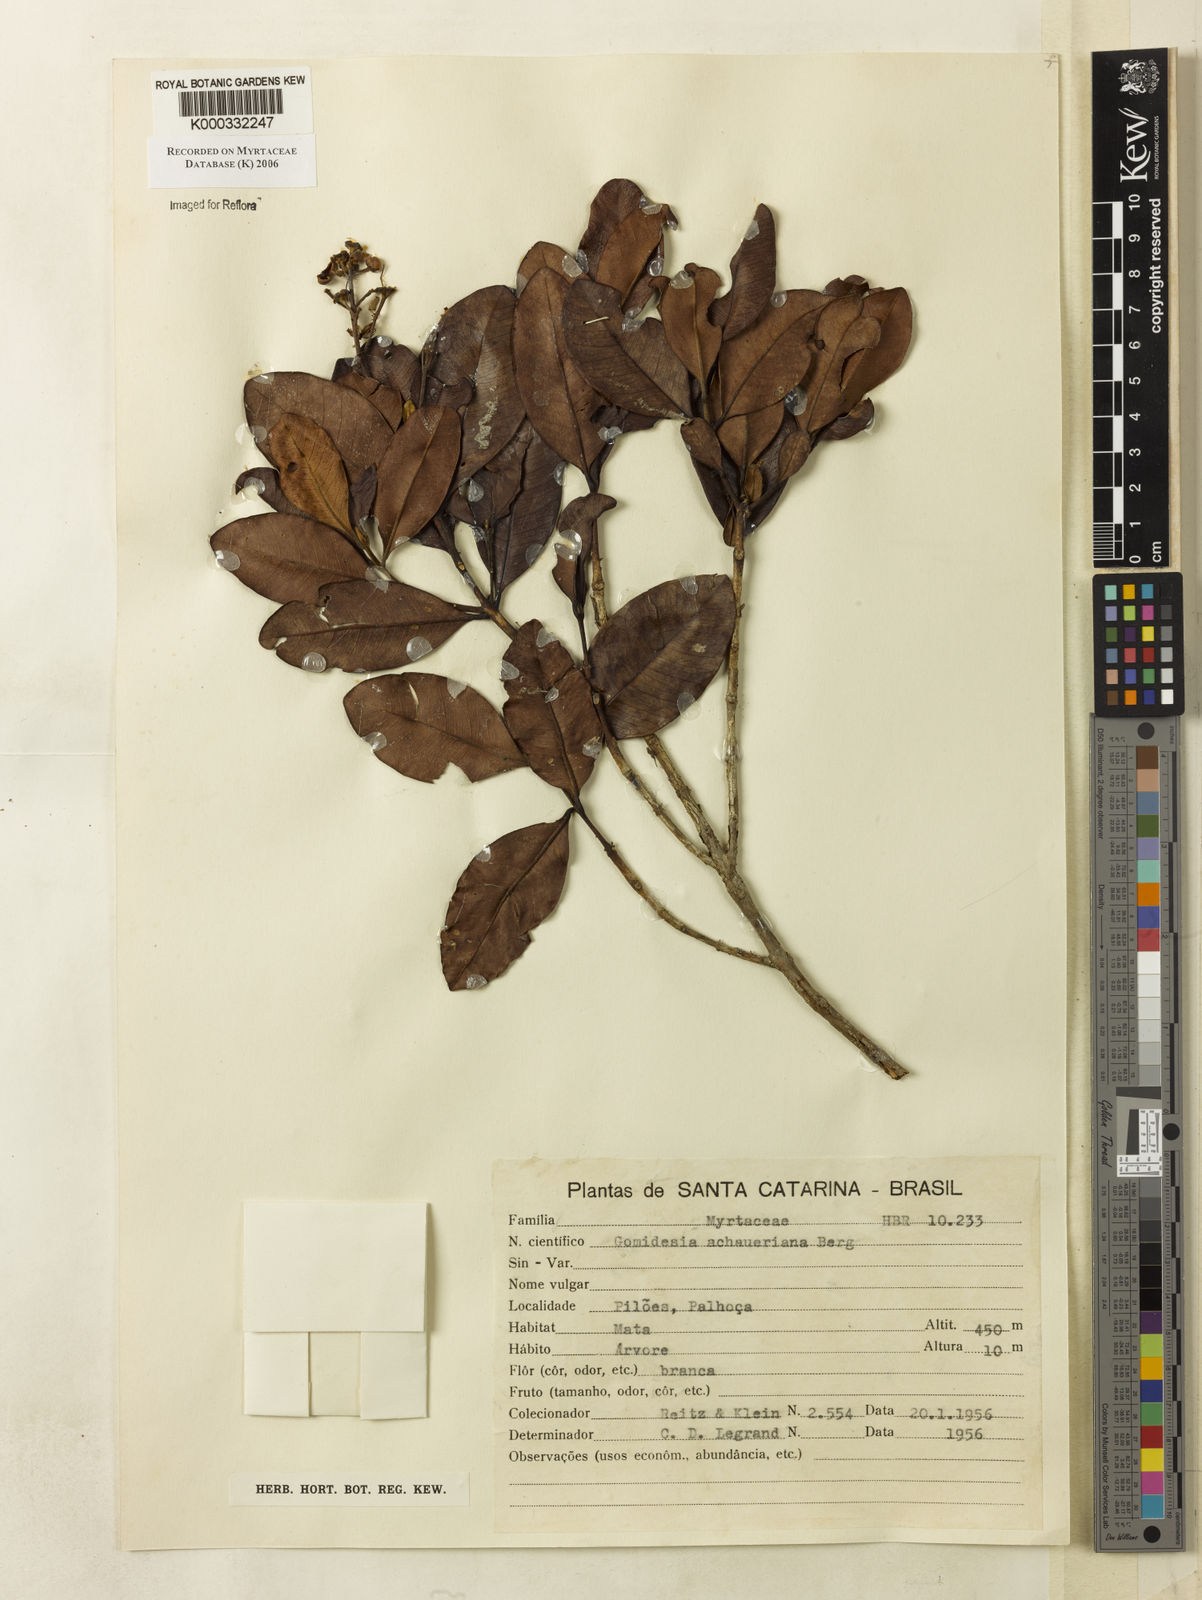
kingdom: Plantae
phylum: Tracheophyta
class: Magnoliopsida
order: Myrtales
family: Myrtaceae
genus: Myrcia
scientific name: Myrcia freyreissiana
